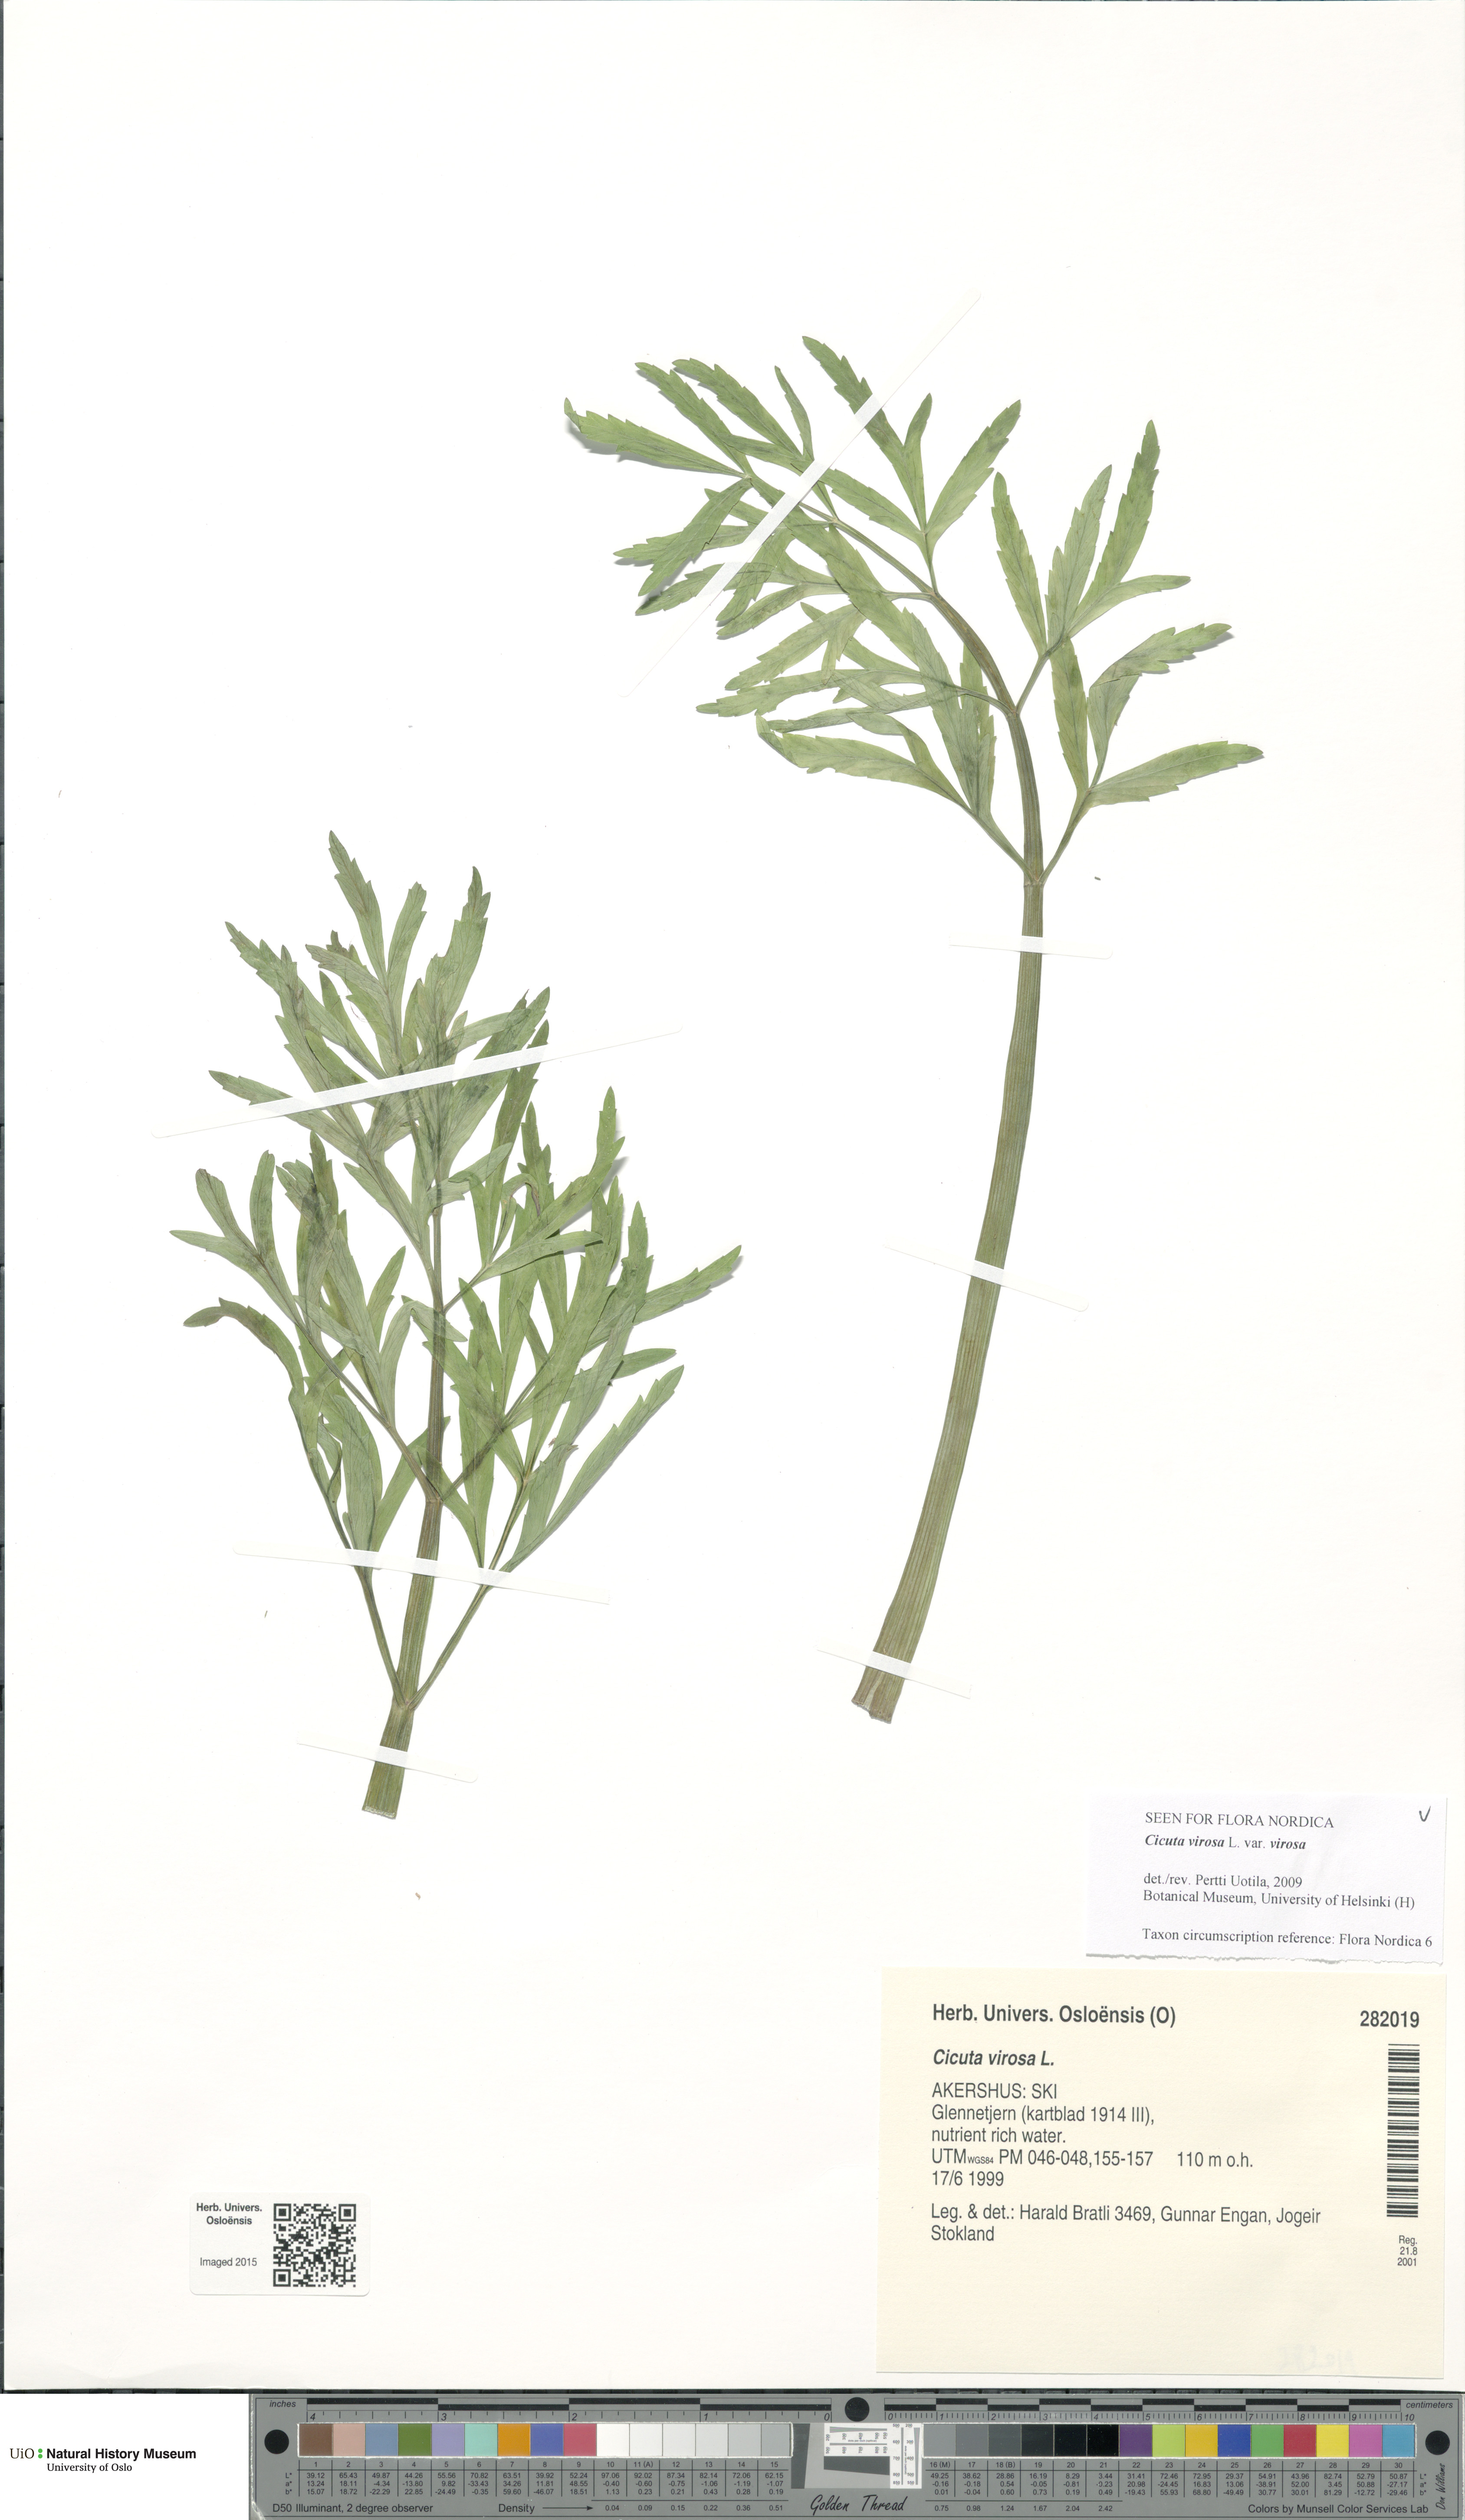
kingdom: Plantae
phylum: Tracheophyta
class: Magnoliopsida
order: Apiales
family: Apiaceae
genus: Cicuta
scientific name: Cicuta virosa
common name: Cowbane
